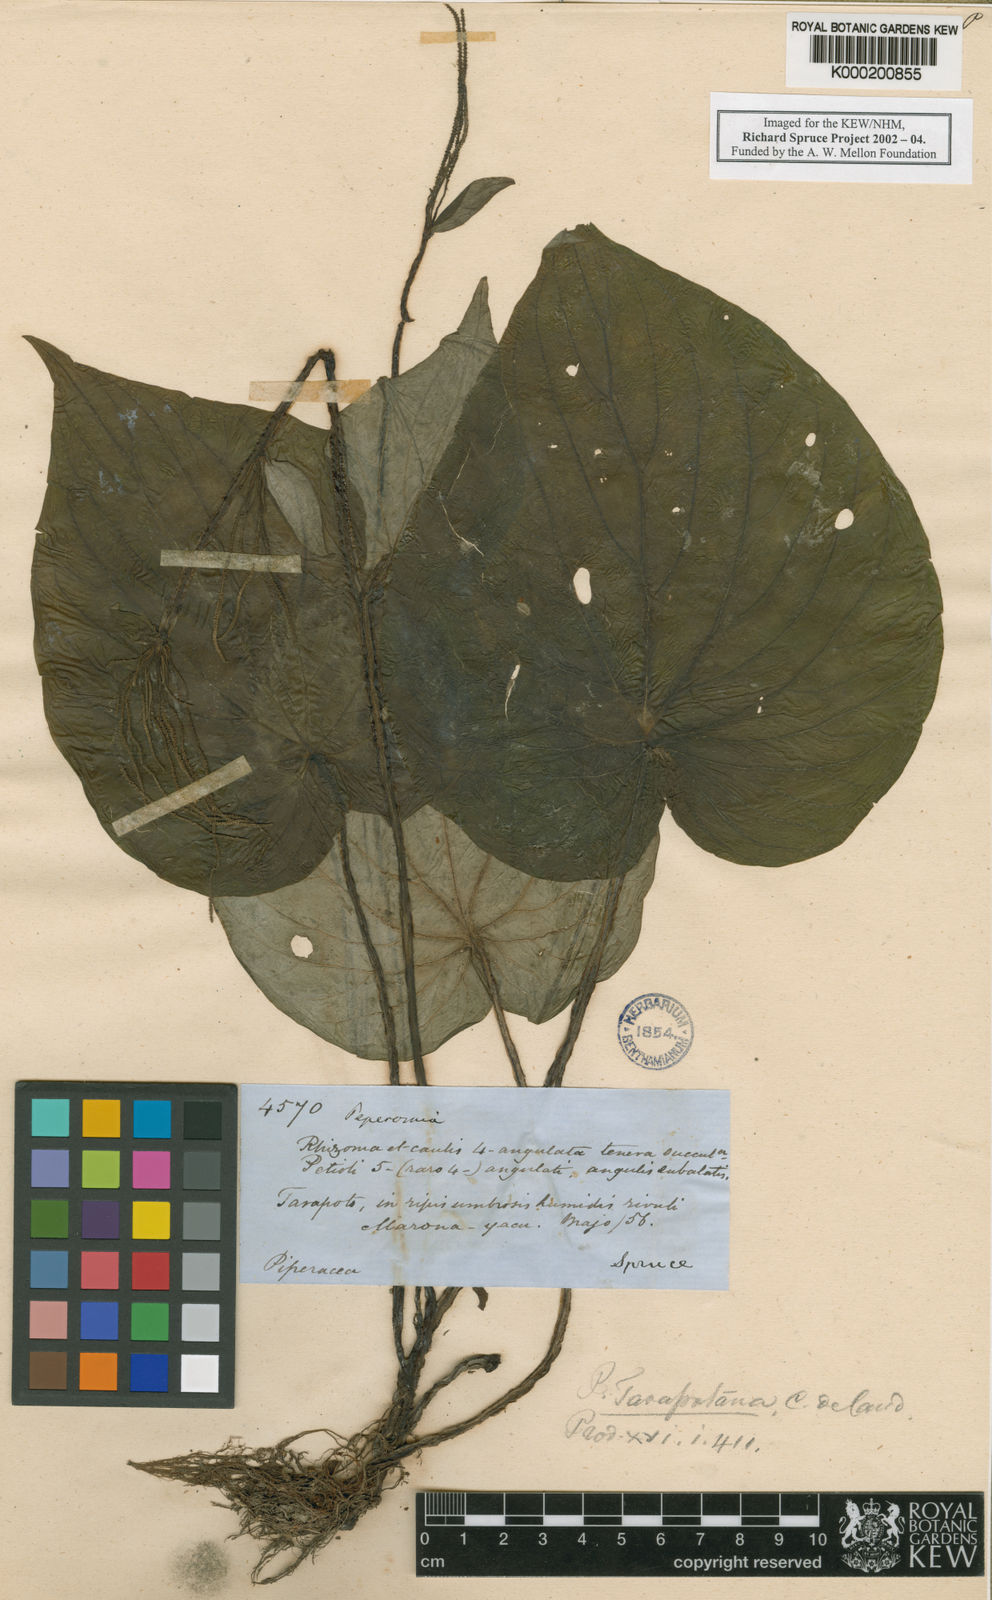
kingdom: Plantae
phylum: Tracheophyta
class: Magnoliopsida
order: Piperales
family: Piperaceae
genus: Peperomia
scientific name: Peperomia tarapotana
